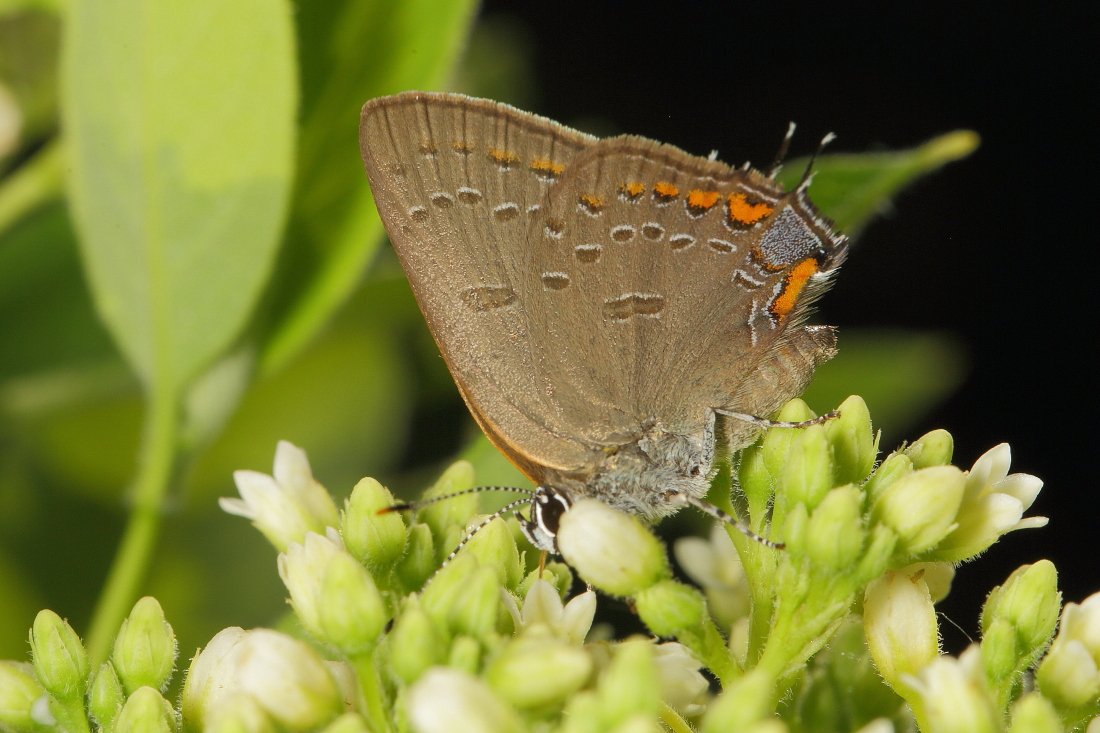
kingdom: Animalia
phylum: Arthropoda
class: Insecta
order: Lepidoptera
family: Lycaenidae
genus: Satyrium
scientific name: Satyrium edwardsii
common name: Edwards' Hairstreak
